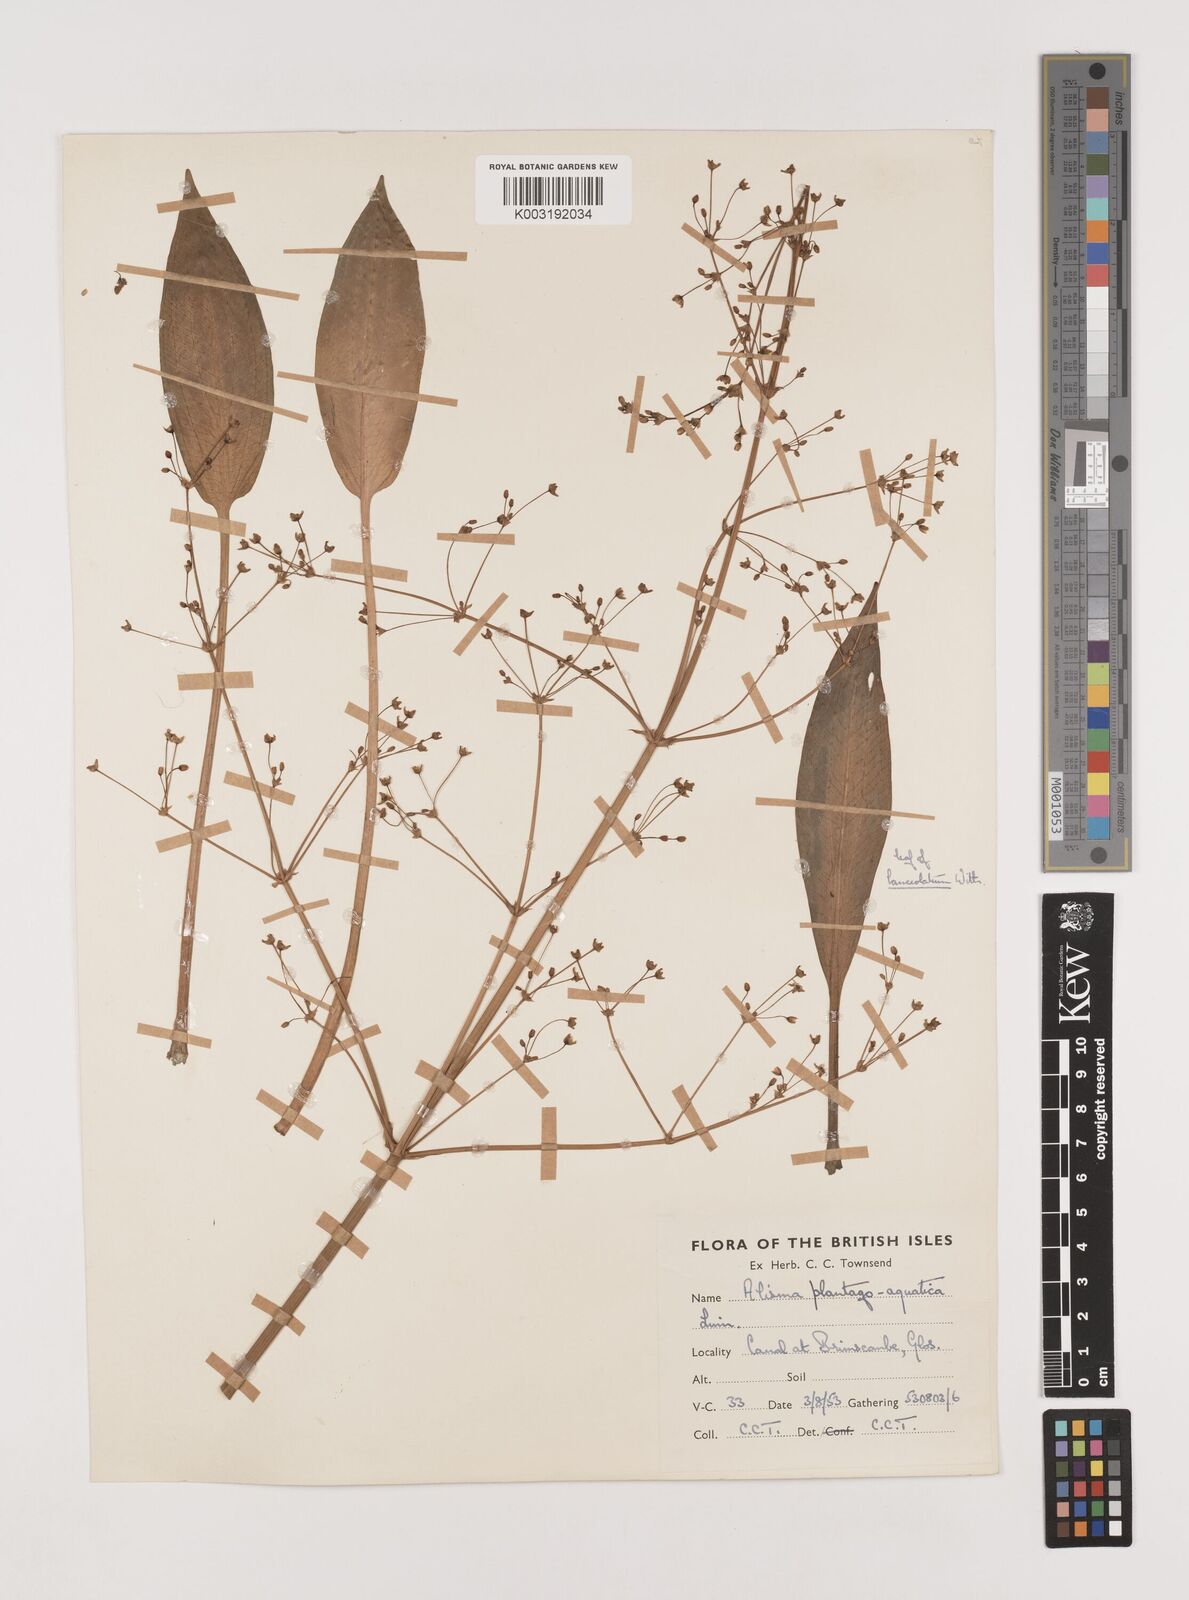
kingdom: Plantae
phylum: Tracheophyta
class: Liliopsida
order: Alismatales
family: Alismataceae
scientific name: Alismataceae
